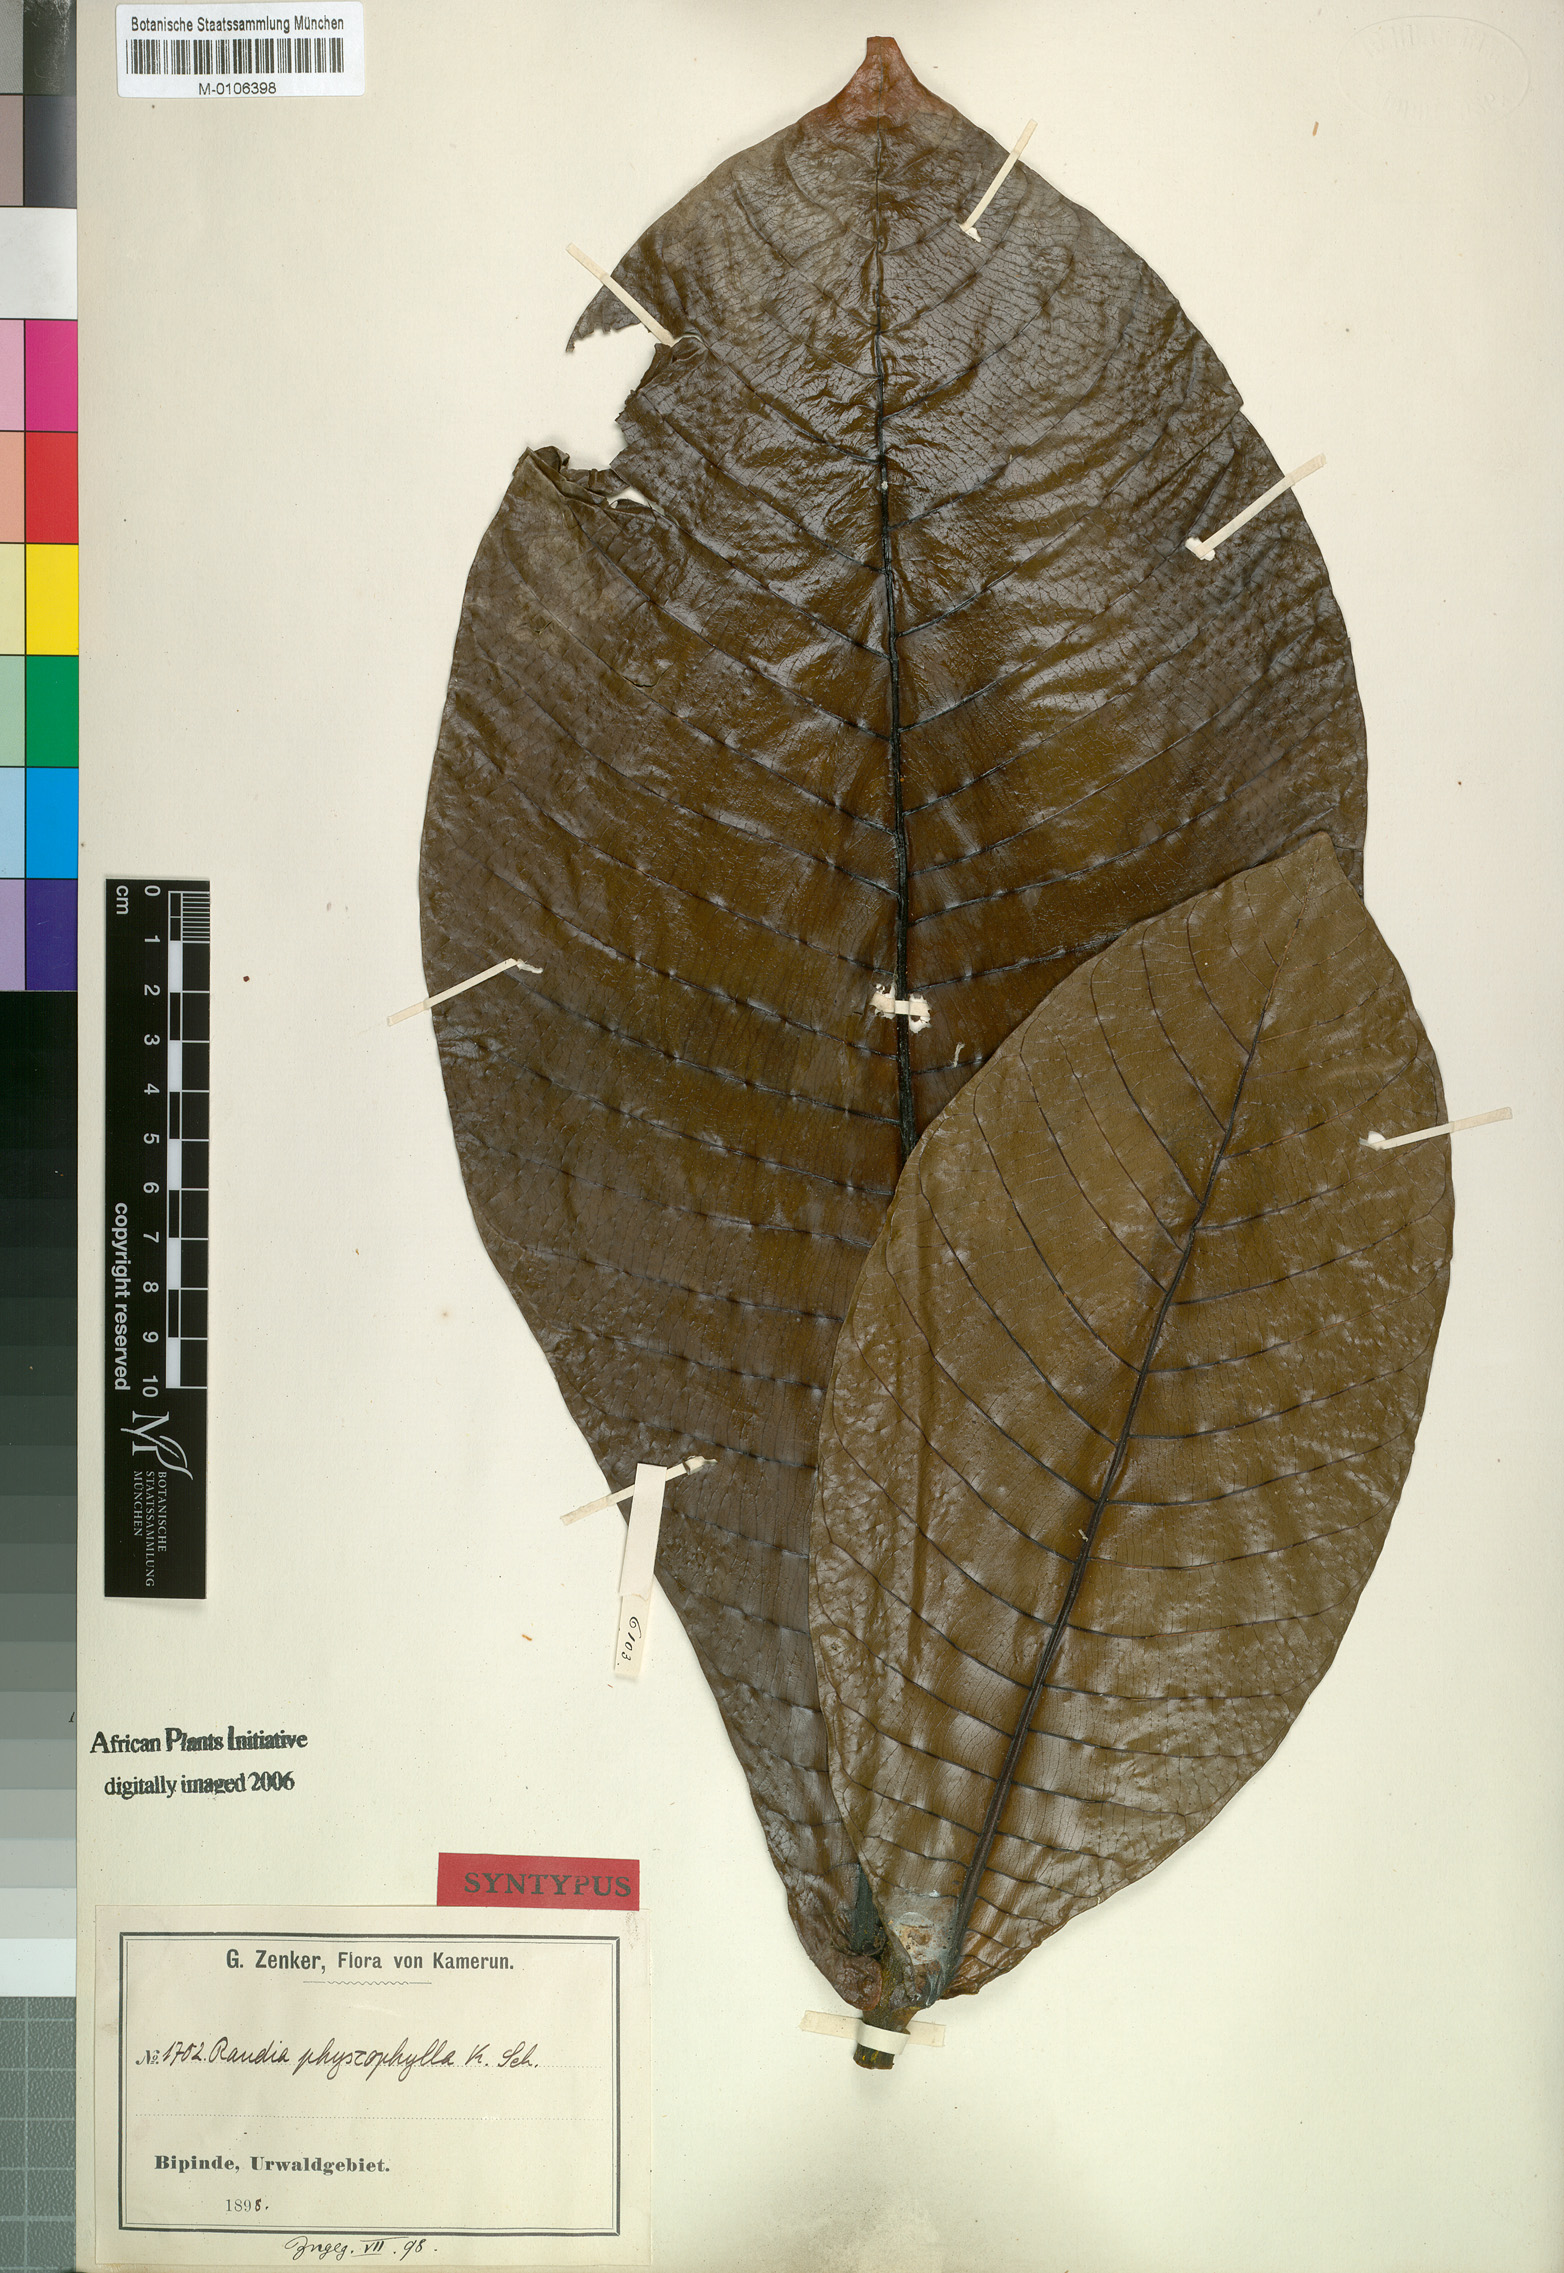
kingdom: Plantae
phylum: Tracheophyta
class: Magnoliopsida
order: Gentianales
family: Rubiaceae
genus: Gardenia
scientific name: Gardenia imperialis
